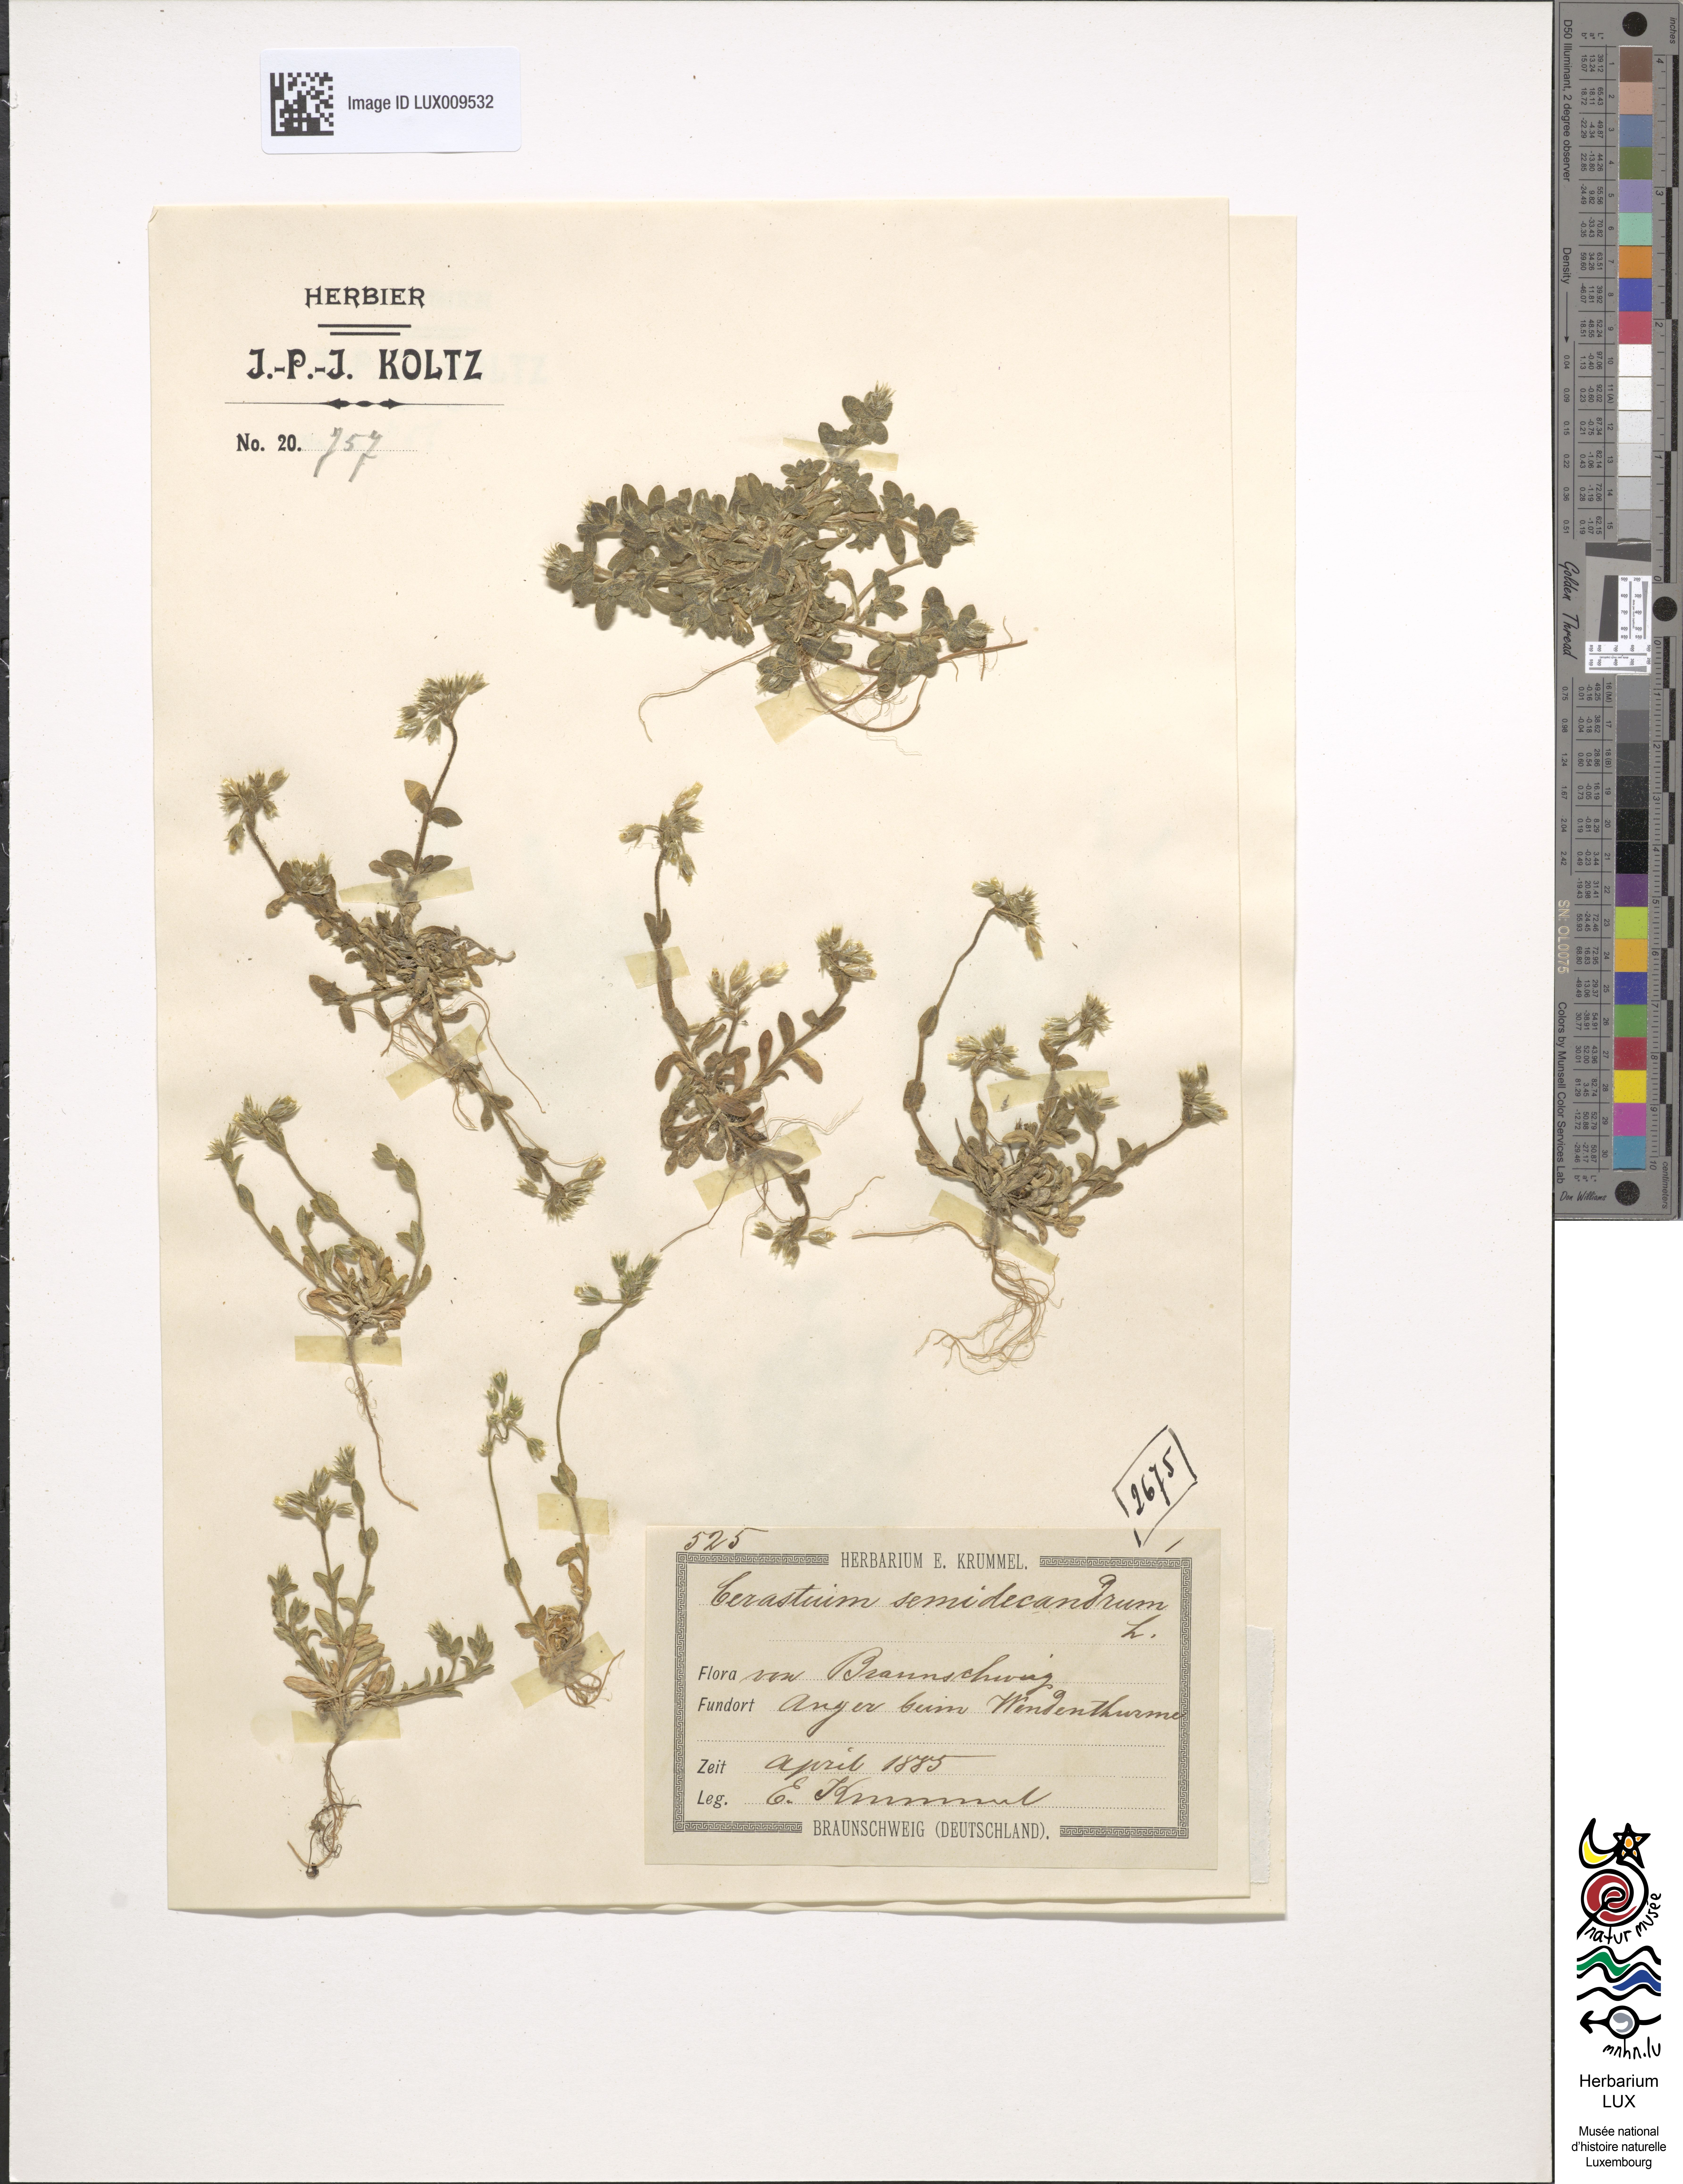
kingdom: Plantae
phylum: Tracheophyta
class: Magnoliopsida
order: Caryophyllales
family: Caryophyllaceae
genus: Cerastium
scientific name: Cerastium semidecandrum
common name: Little mouse-ear
